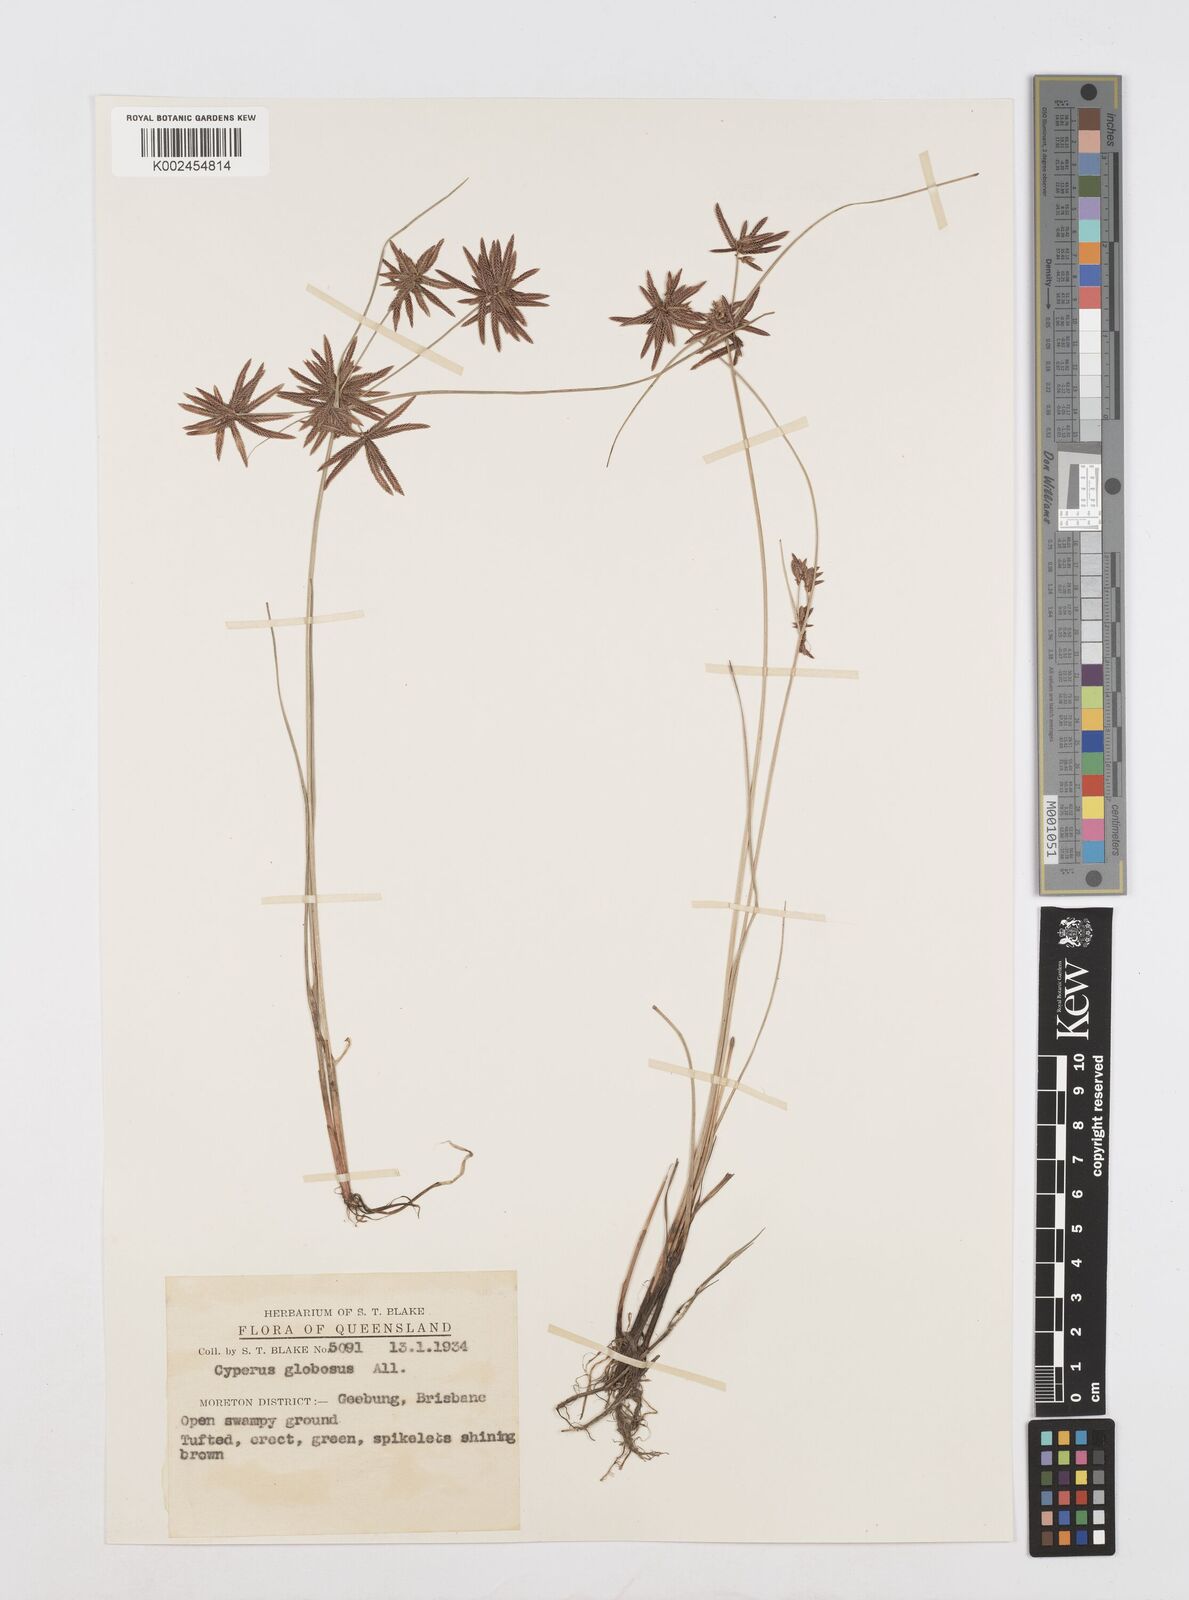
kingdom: Plantae
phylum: Tracheophyta
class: Liliopsida
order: Poales
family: Cyperaceae
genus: Cyperus
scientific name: Cyperus flavidus
